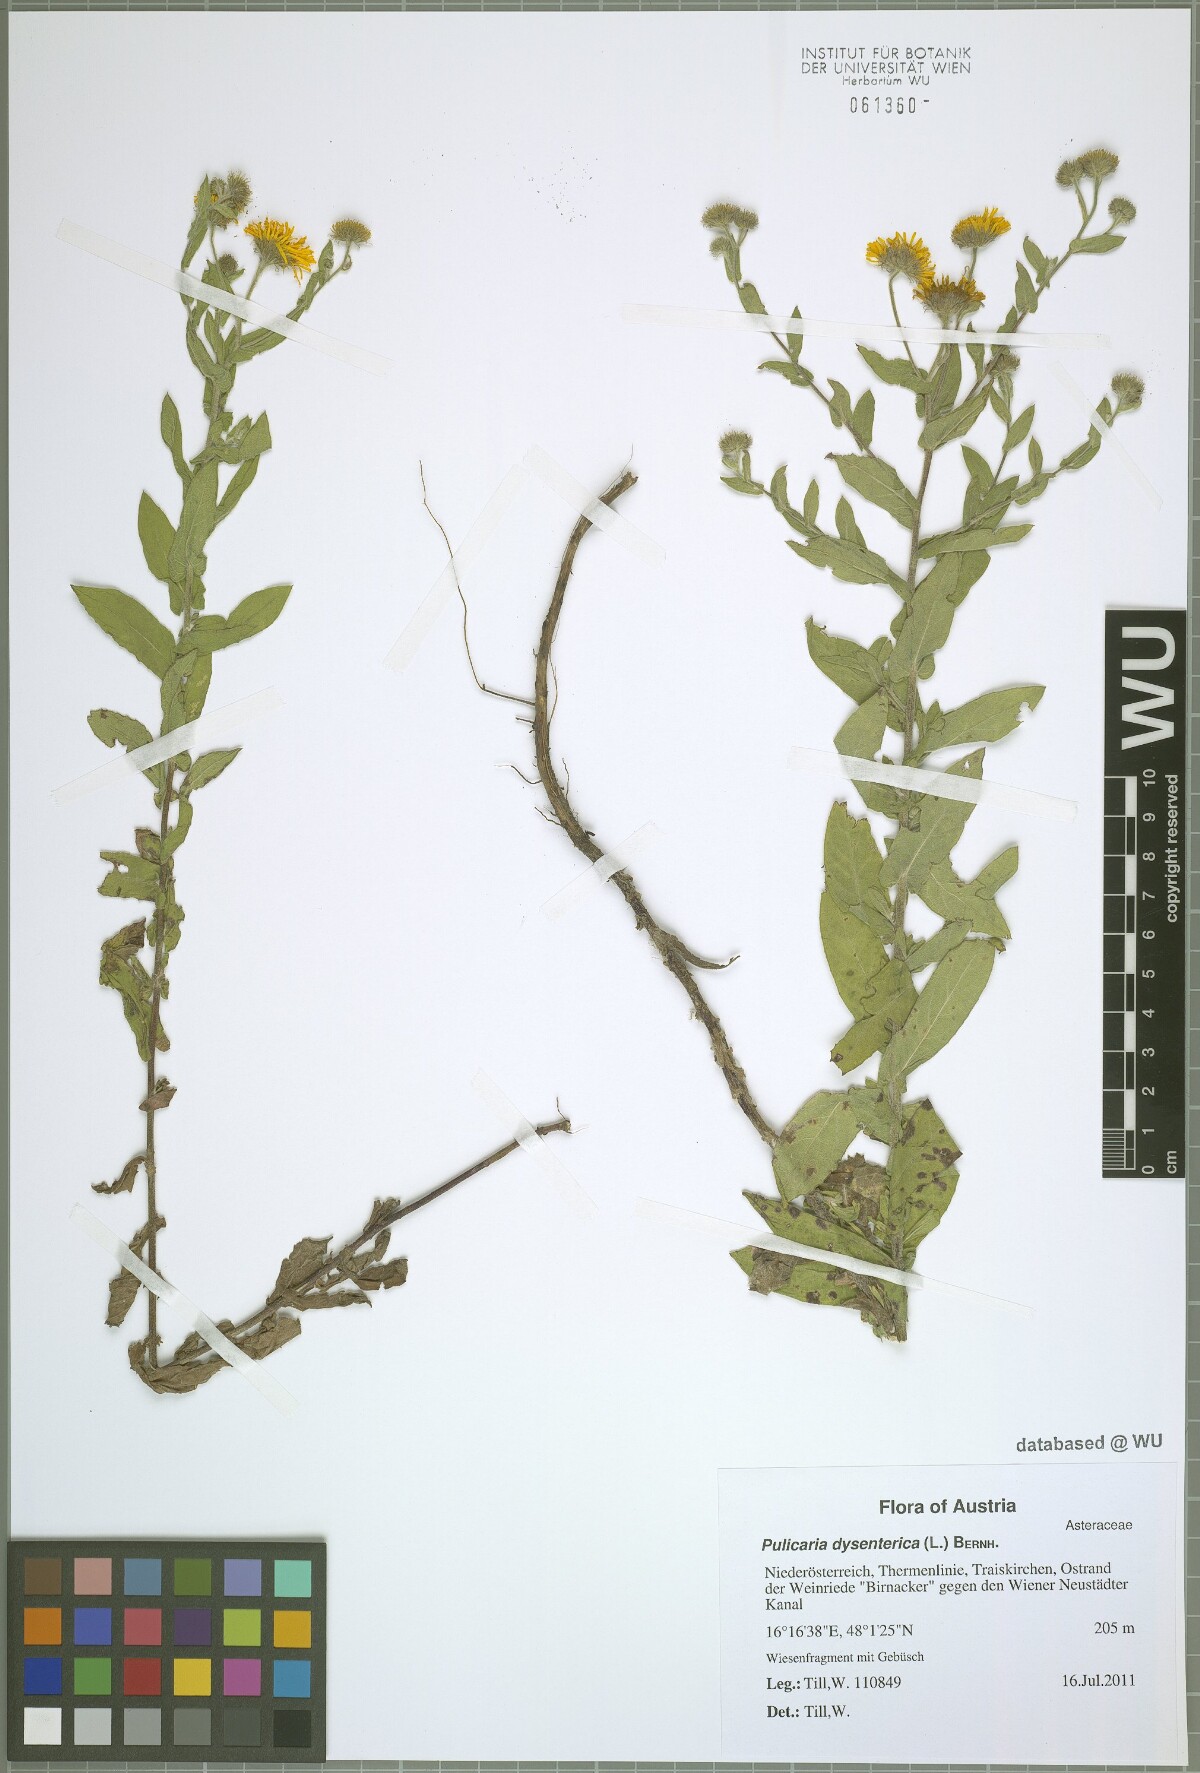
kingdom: Plantae
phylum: Tracheophyta
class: Magnoliopsida
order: Asterales
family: Asteraceae
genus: Pulicaria
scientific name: Pulicaria dysenterica
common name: Common fleabane
